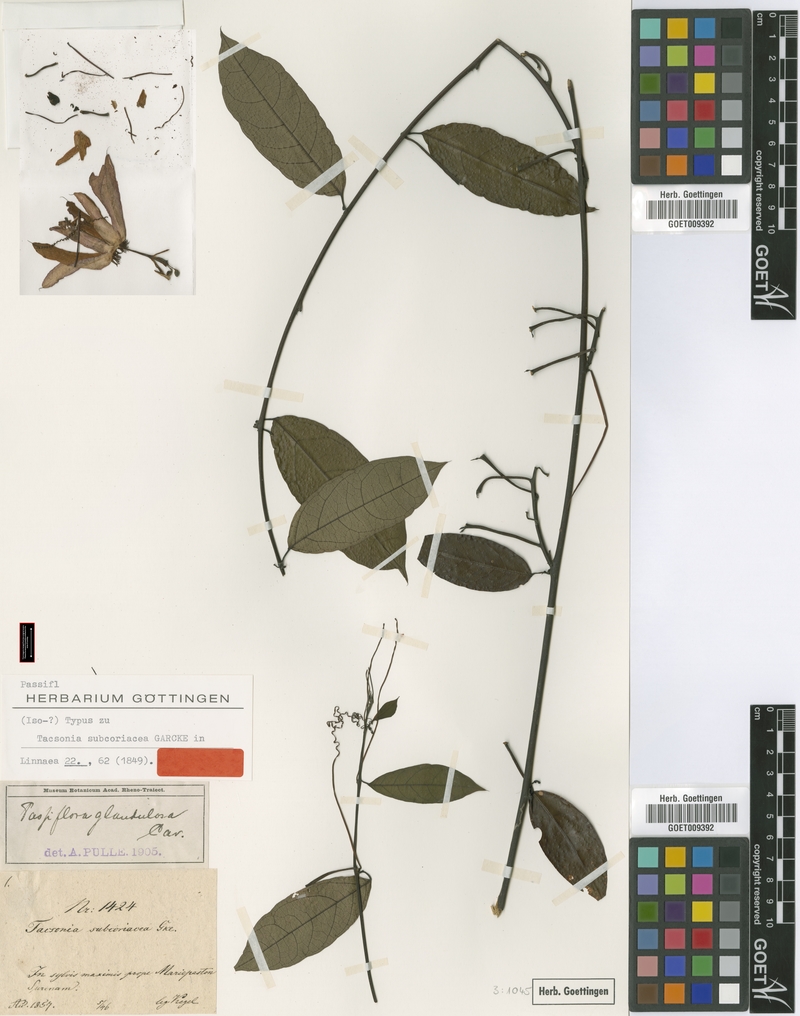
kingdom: Plantae
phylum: Tracheophyta
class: Magnoliopsida
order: Malpighiales
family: Passifloraceae
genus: Passiflora
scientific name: Passiflora glandulosa
